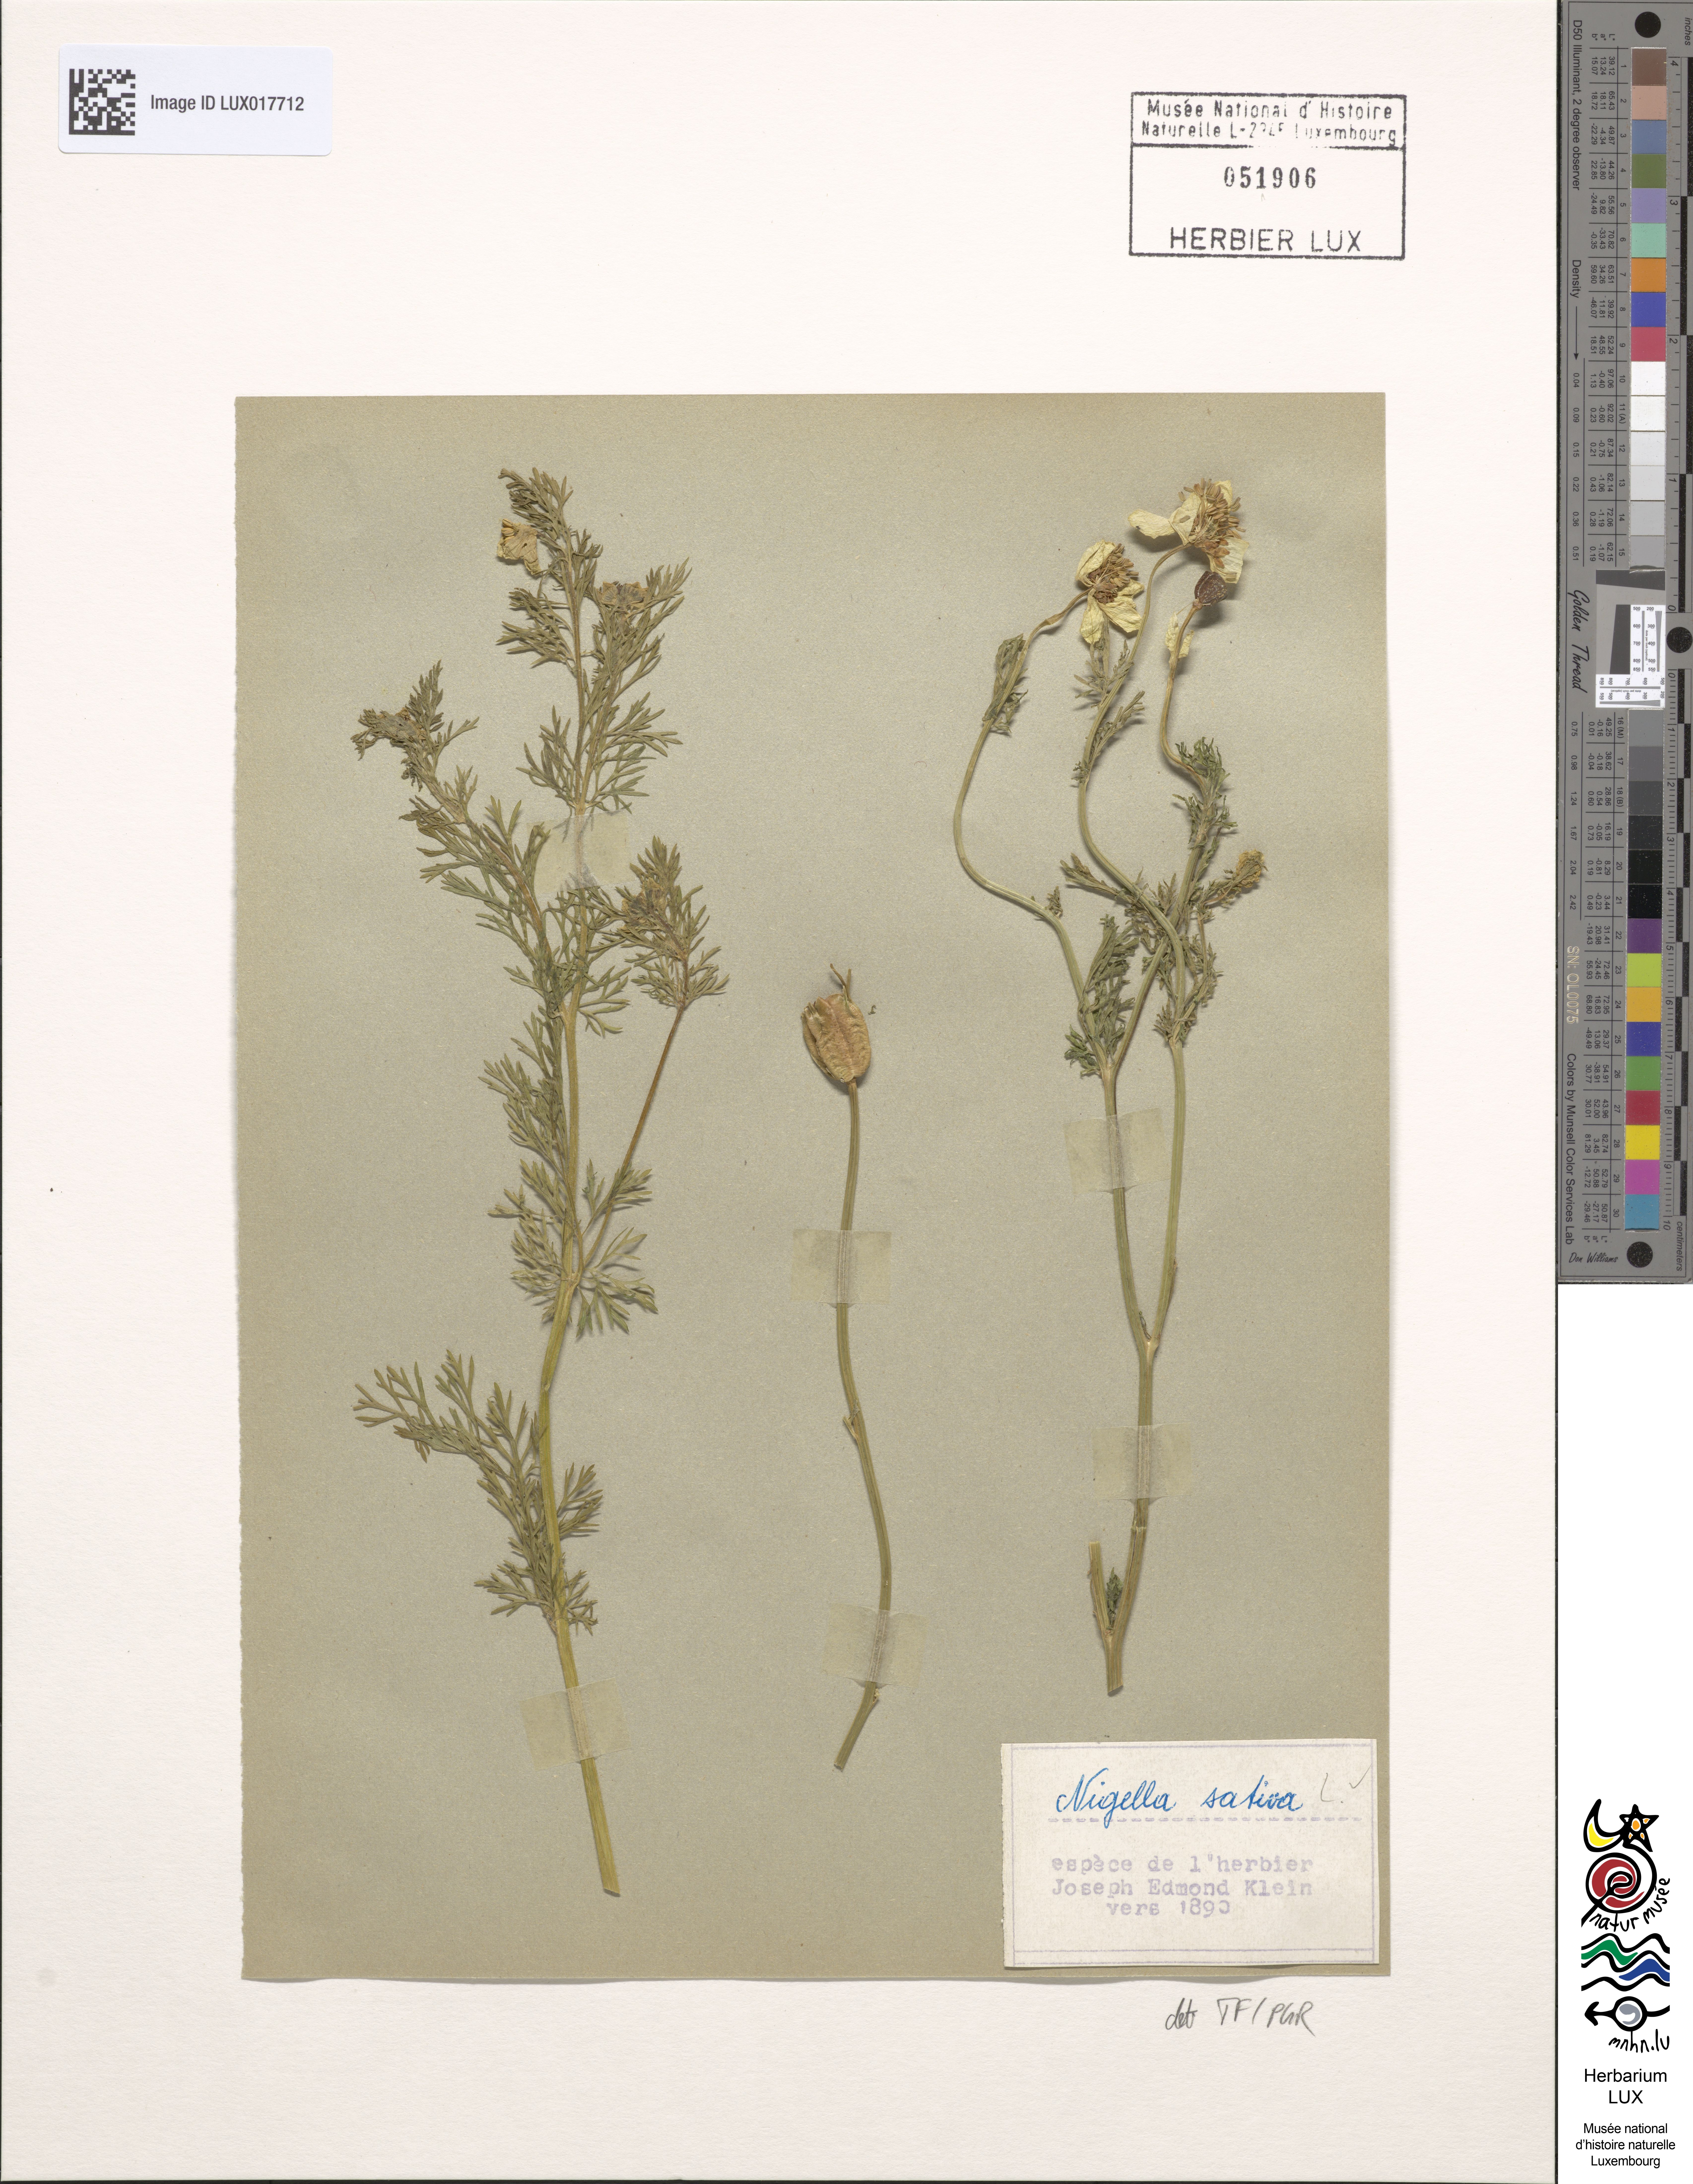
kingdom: Plantae
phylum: Tracheophyta
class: Magnoliopsida
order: Ranunculales
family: Ranunculaceae
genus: Nigella
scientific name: Nigella sativa
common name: Black-cumin
